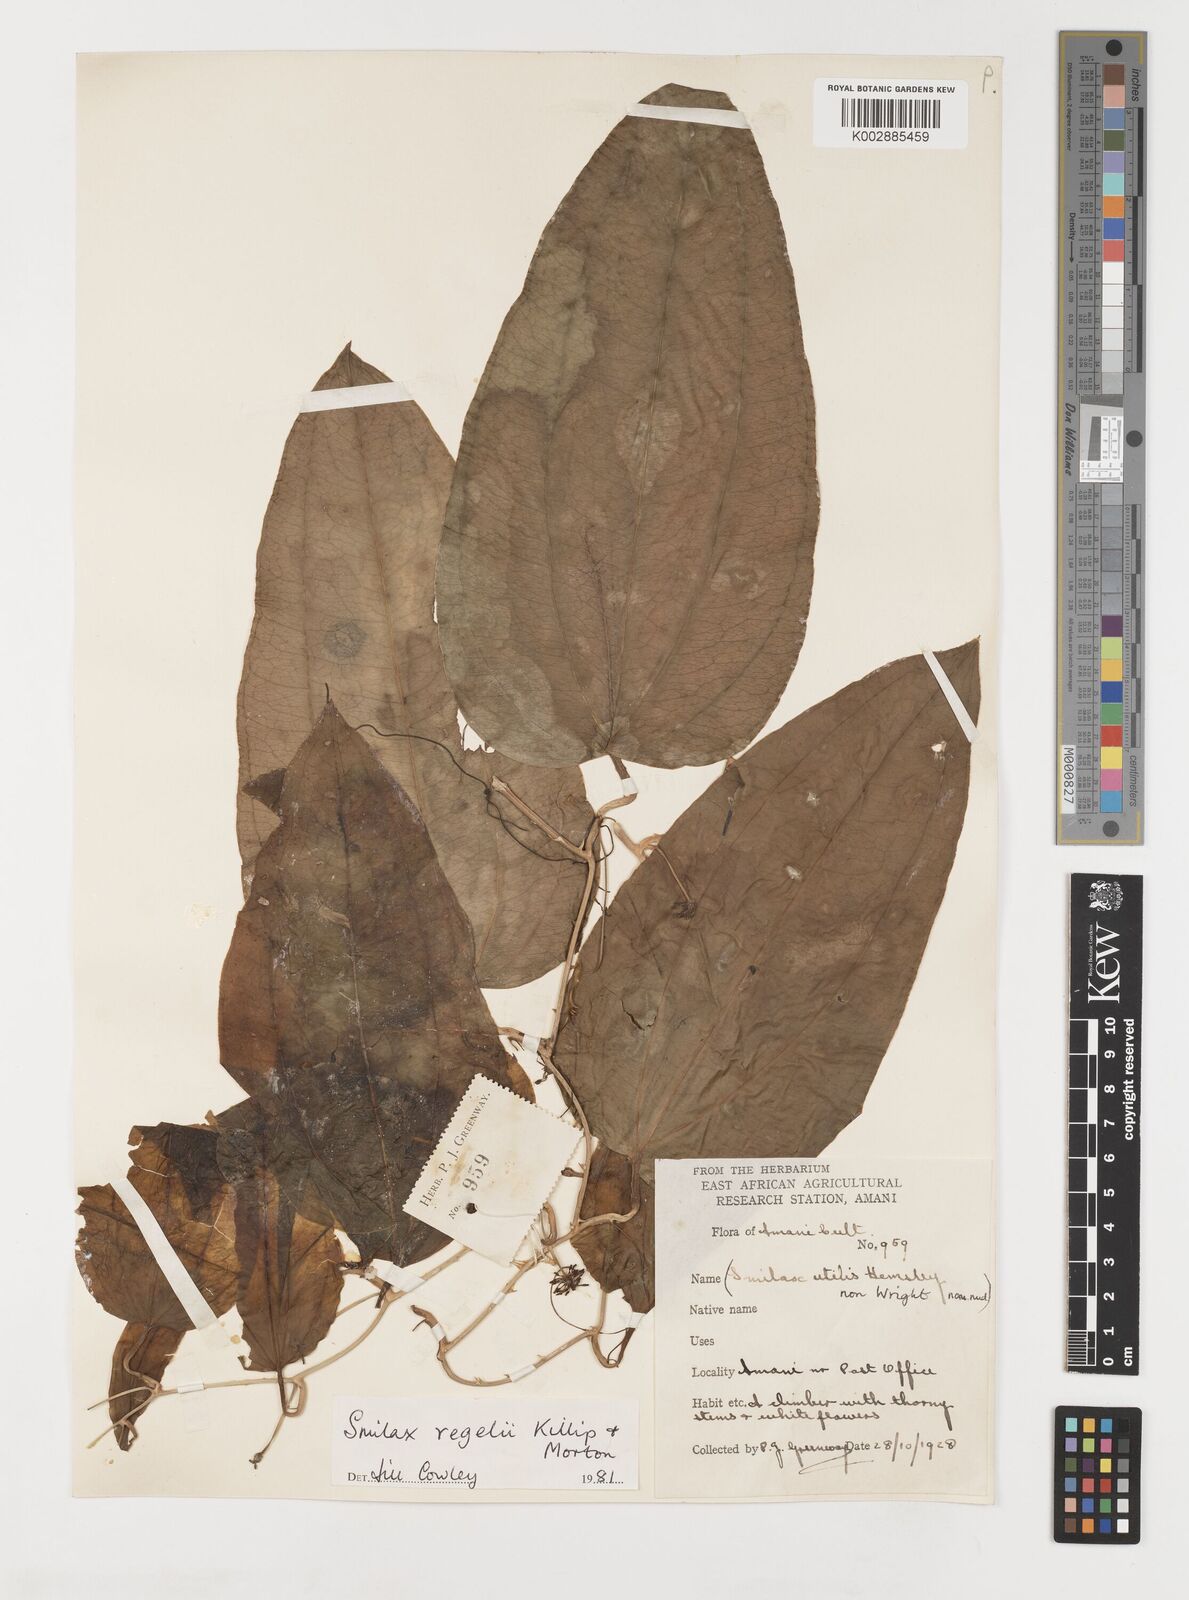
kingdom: Plantae
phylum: Tracheophyta
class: Liliopsida
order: Liliales
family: Smilacaceae
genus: Smilax
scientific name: Smilax ornata
